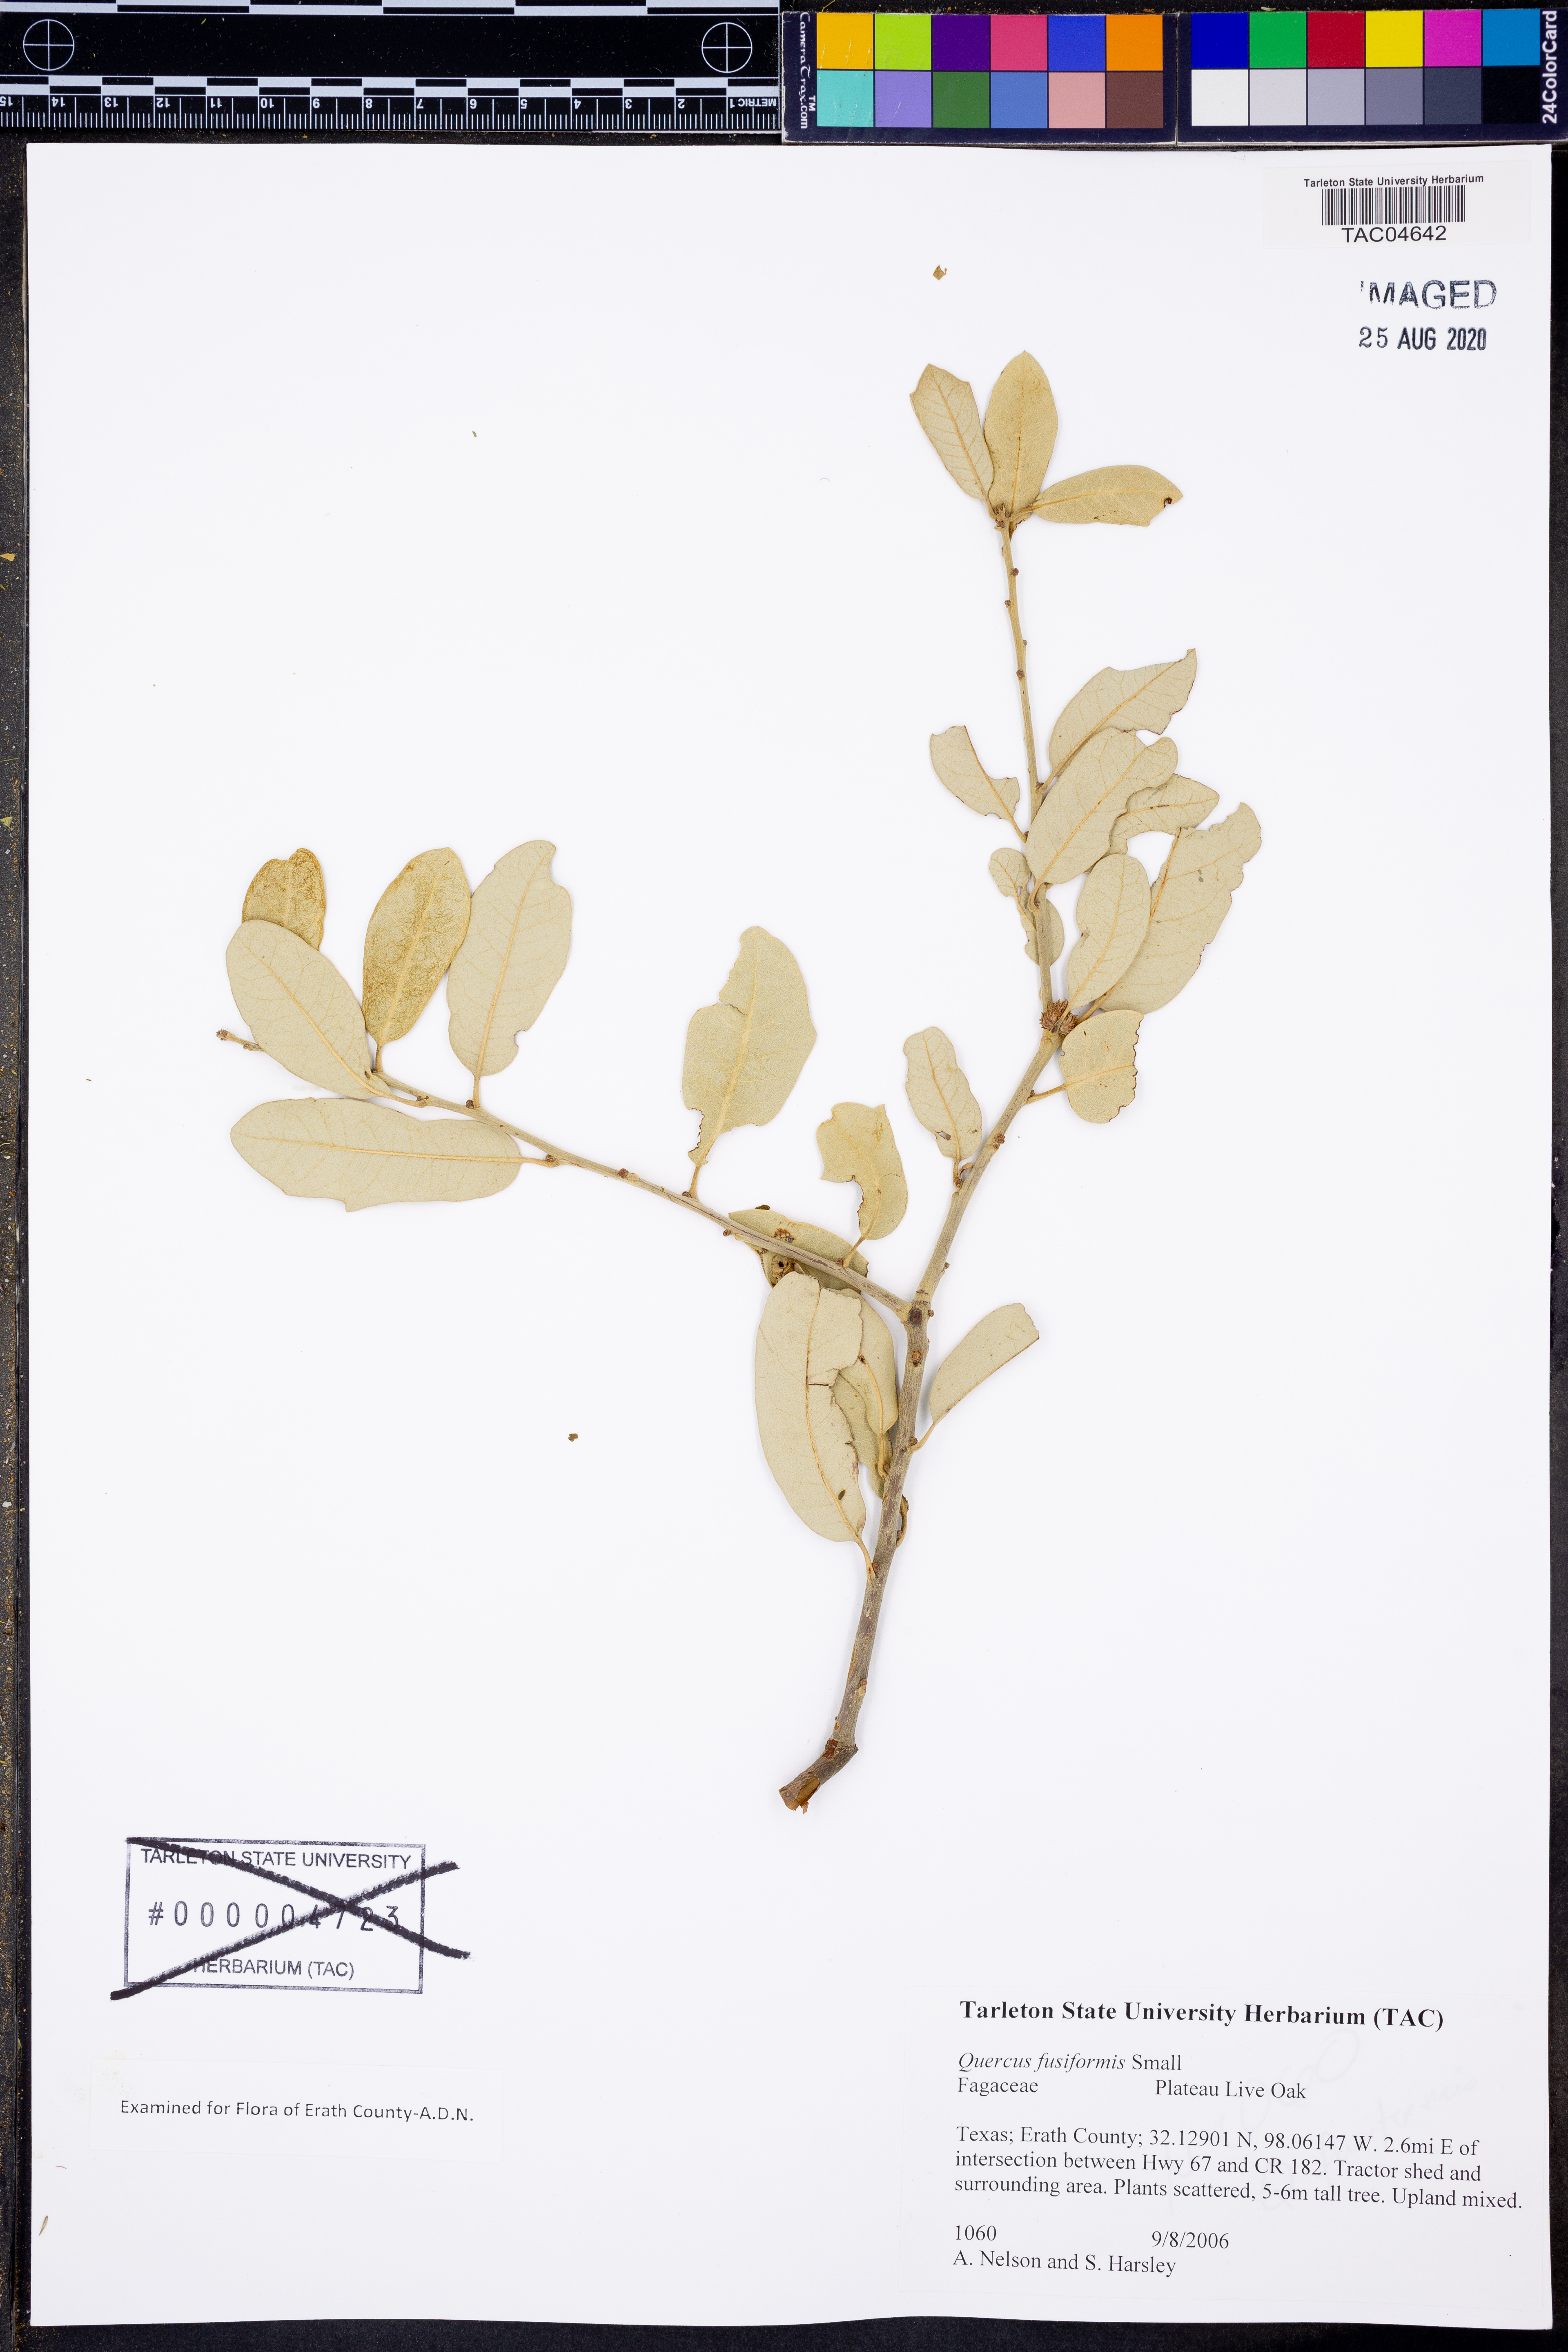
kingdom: Plantae
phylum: Tracheophyta
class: Magnoliopsida
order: Fagales
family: Fagaceae
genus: Quercus
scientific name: Quercus fusiformis
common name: Texas live oak
